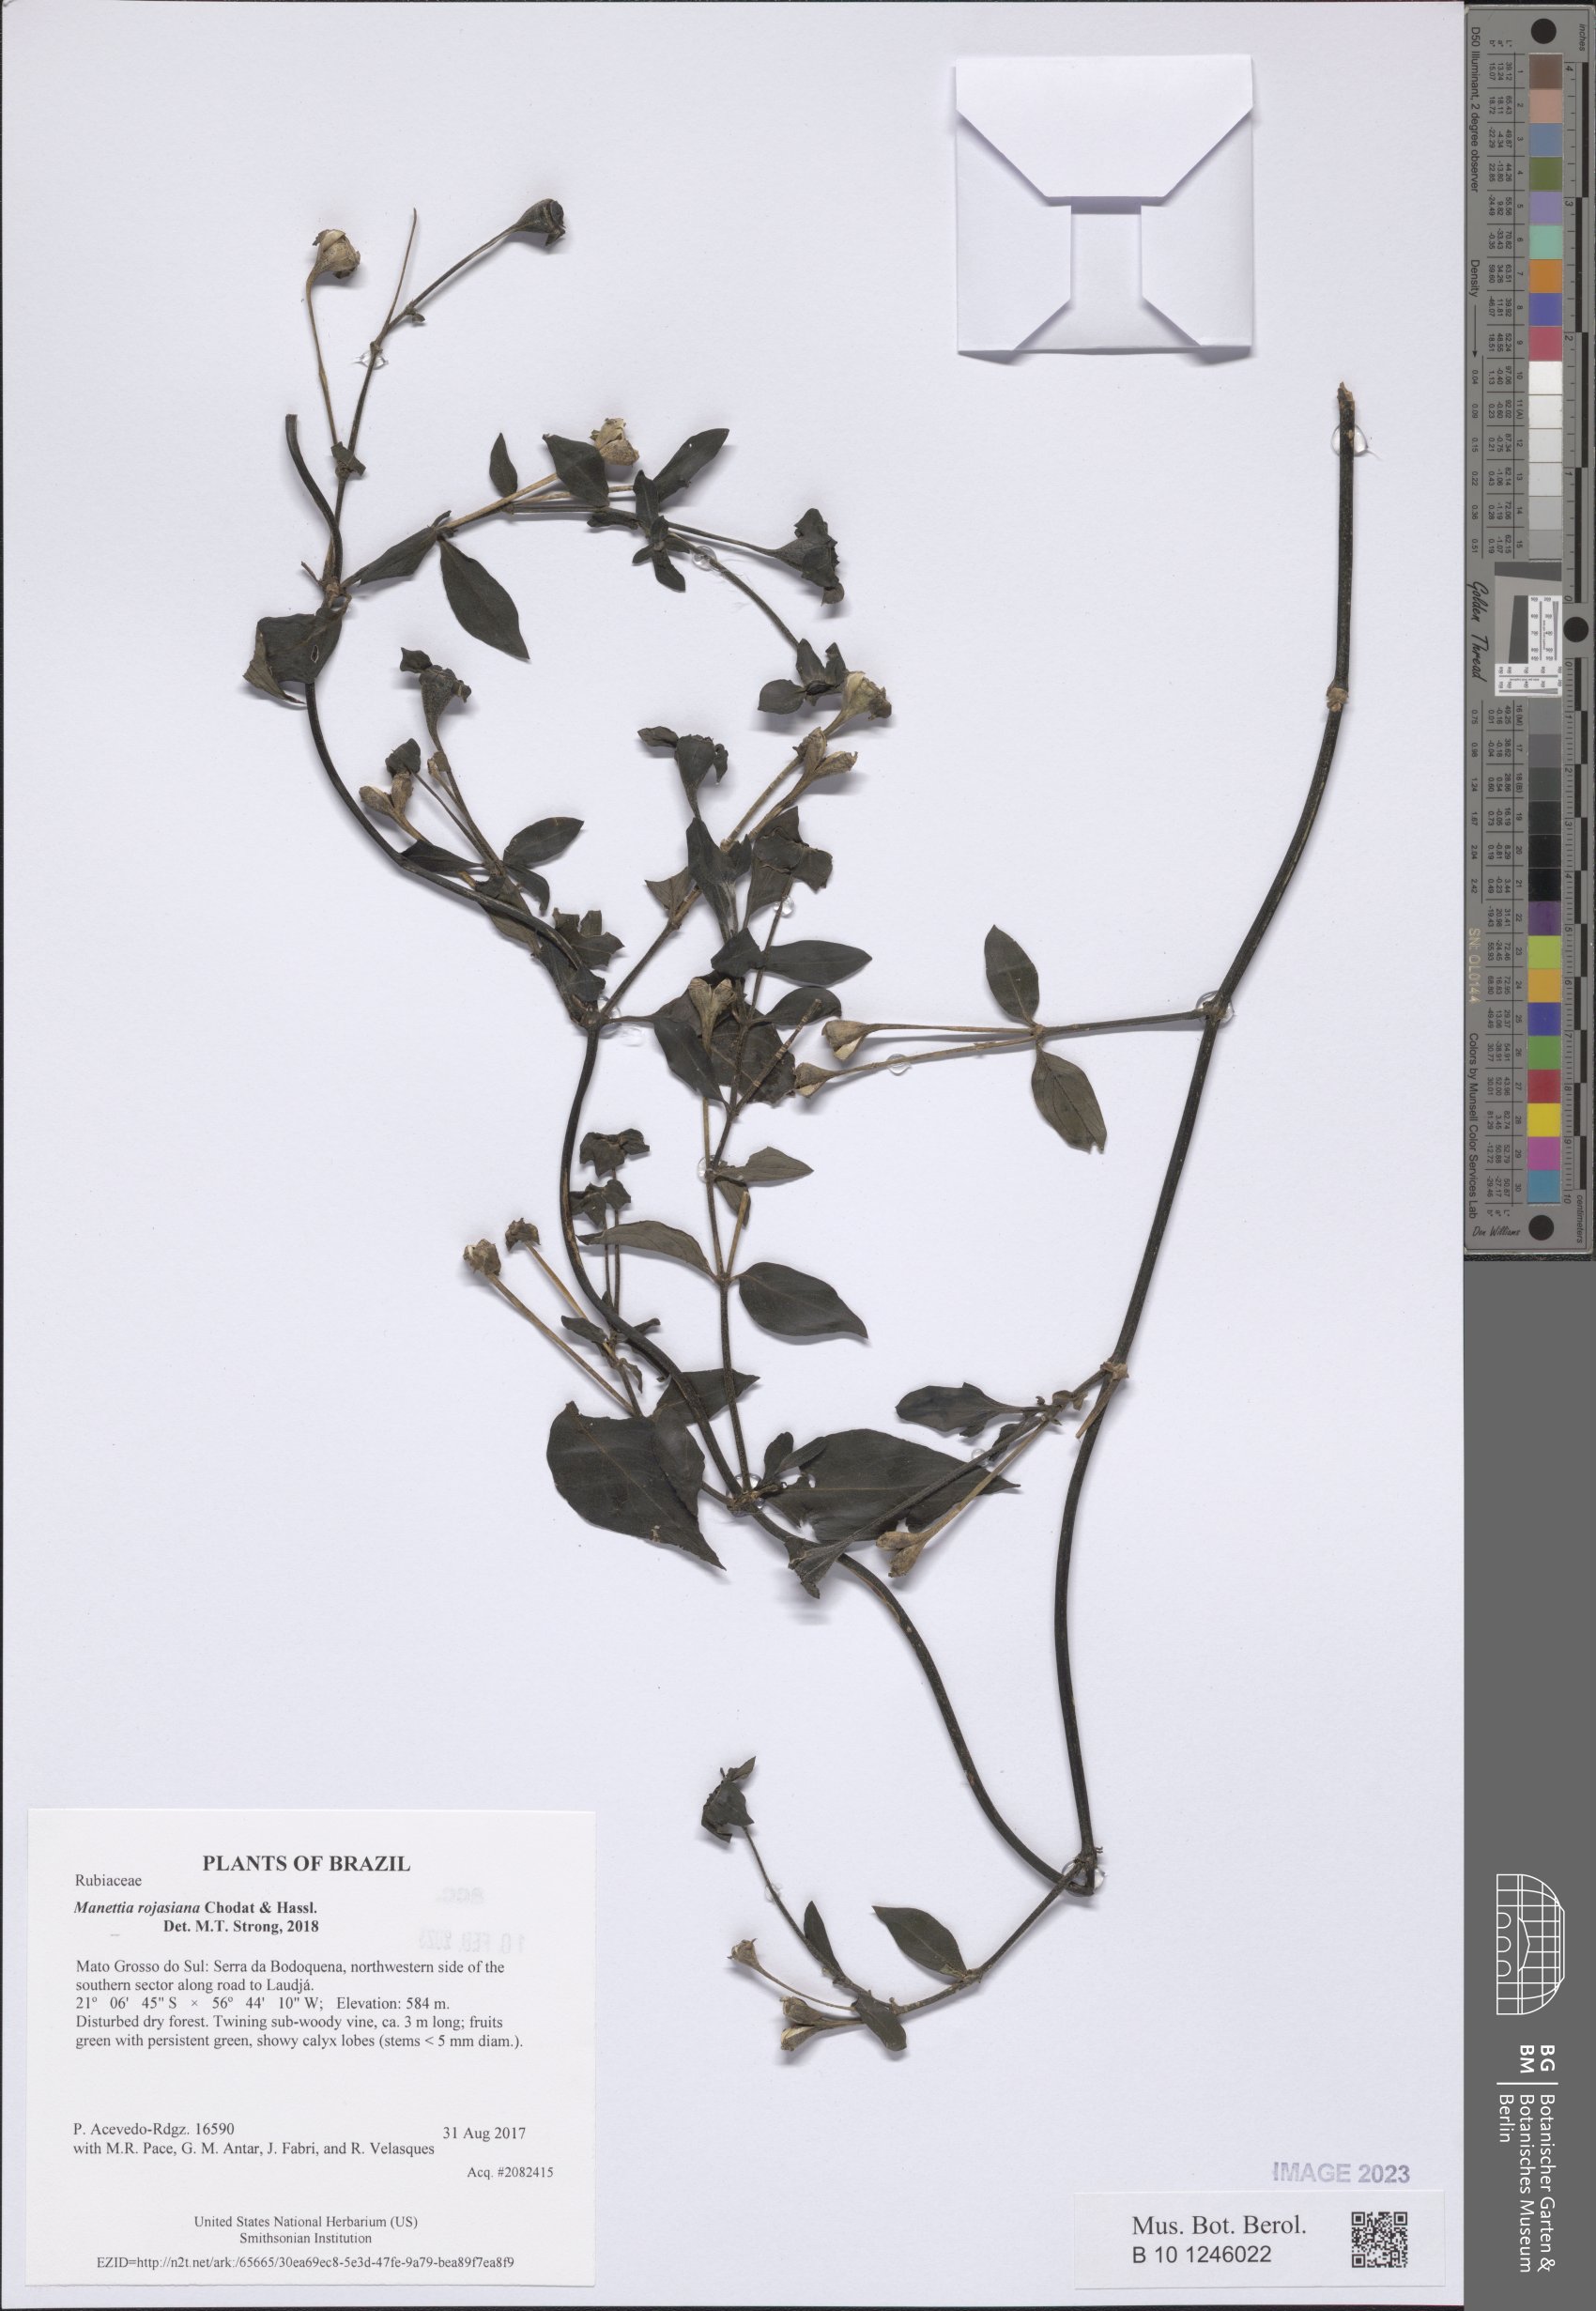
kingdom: Plantae
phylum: Tracheophyta
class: Magnoliopsida
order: Gentianales
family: Rubiaceae
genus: Manettia
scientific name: Manettia rojasiana
